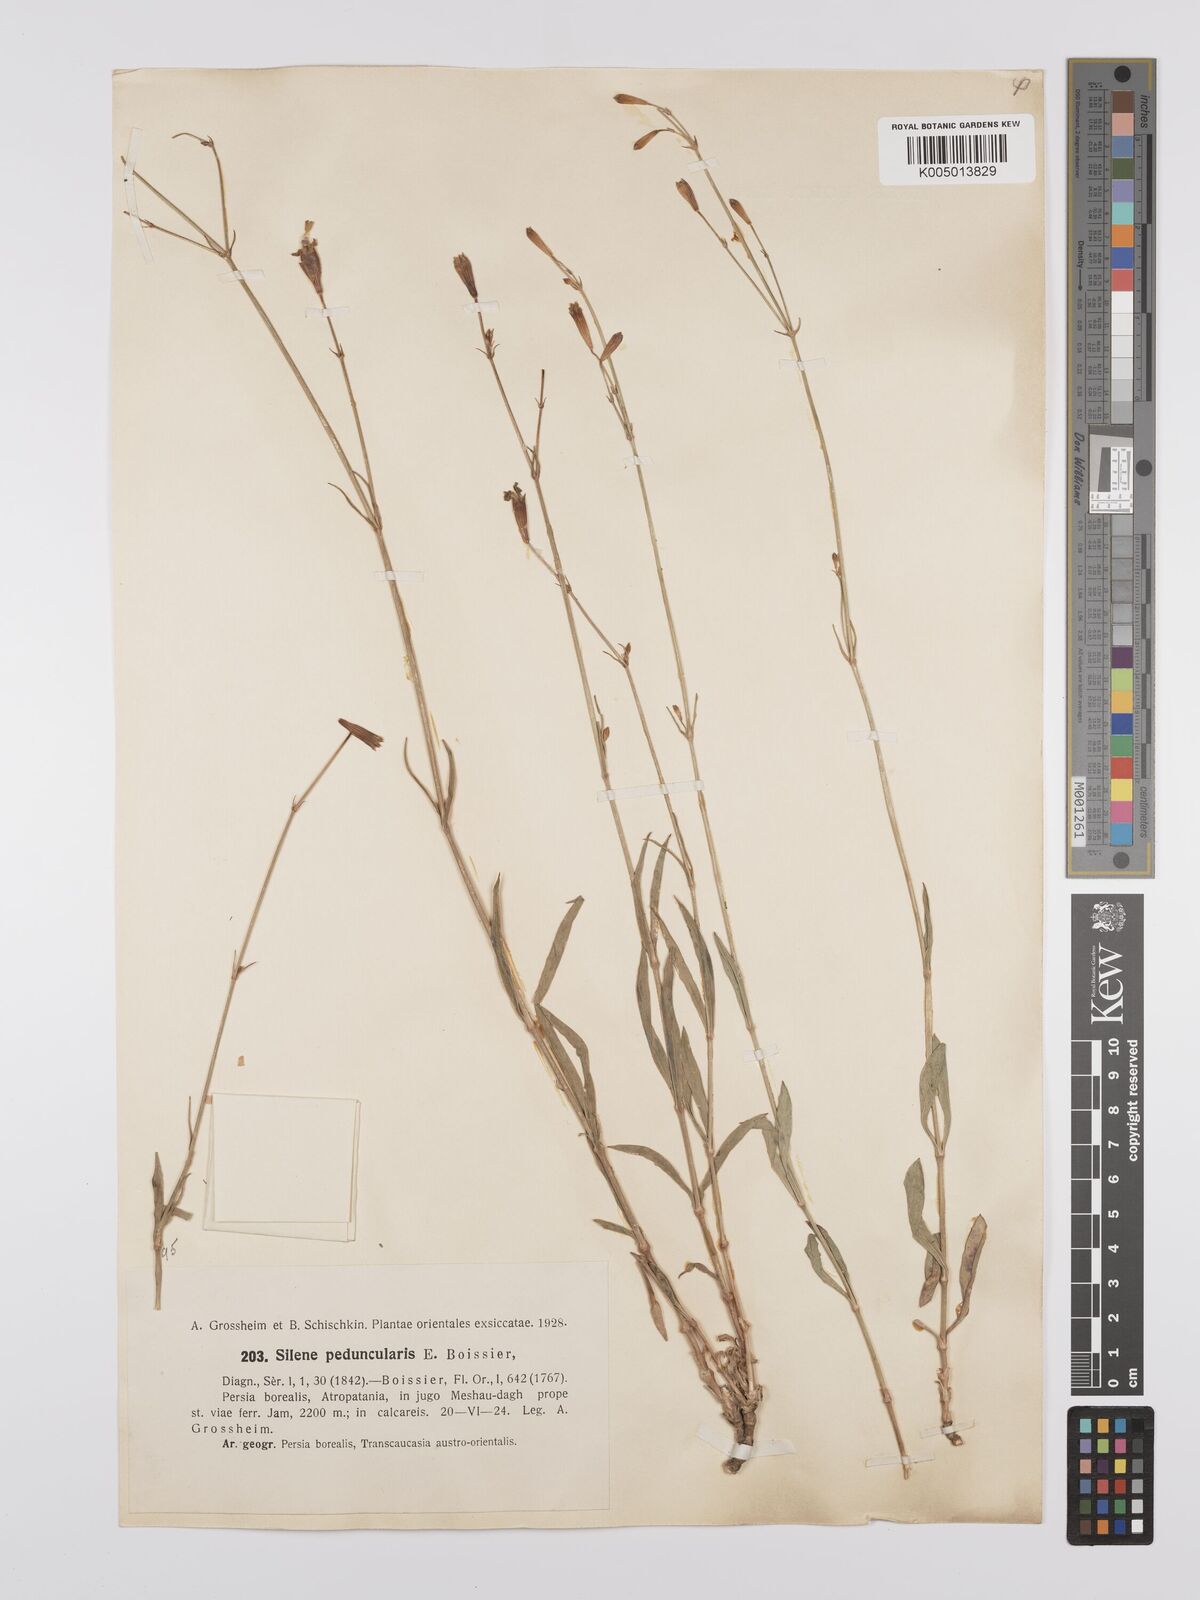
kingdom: Plantae
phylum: Tracheophyta
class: Magnoliopsida
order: Caryophyllales
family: Caryophyllaceae
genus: Silene
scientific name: Silene peduncularis
